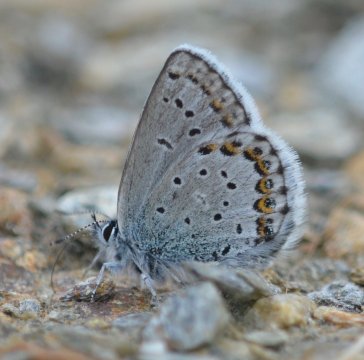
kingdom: Animalia
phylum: Arthropoda
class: Insecta
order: Lepidoptera
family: Lycaenidae
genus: Lycaeides
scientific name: Lycaeides idas
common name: Northern Blue
